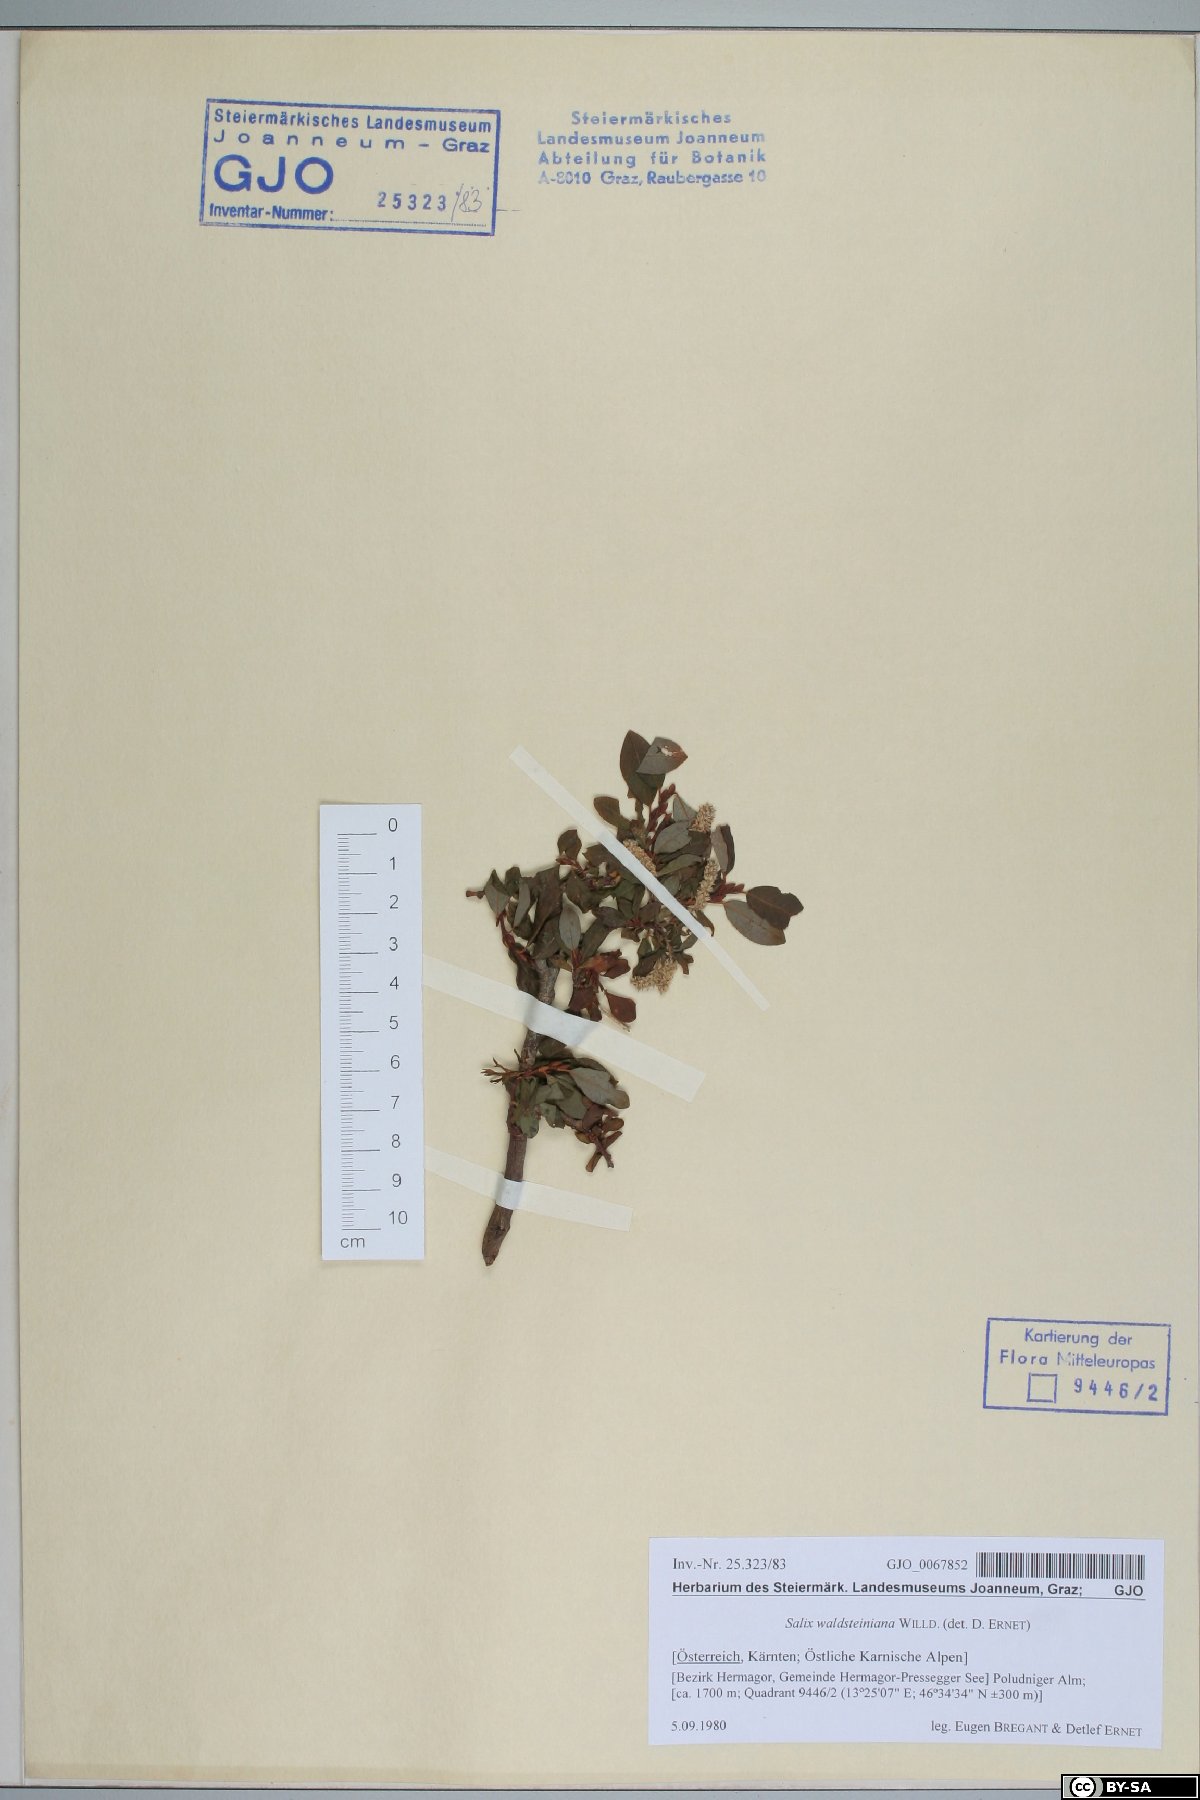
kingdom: Plantae
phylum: Tracheophyta
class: Magnoliopsida
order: Malpighiales
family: Salicaceae
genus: Salix
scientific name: Salix waldsteiniana
